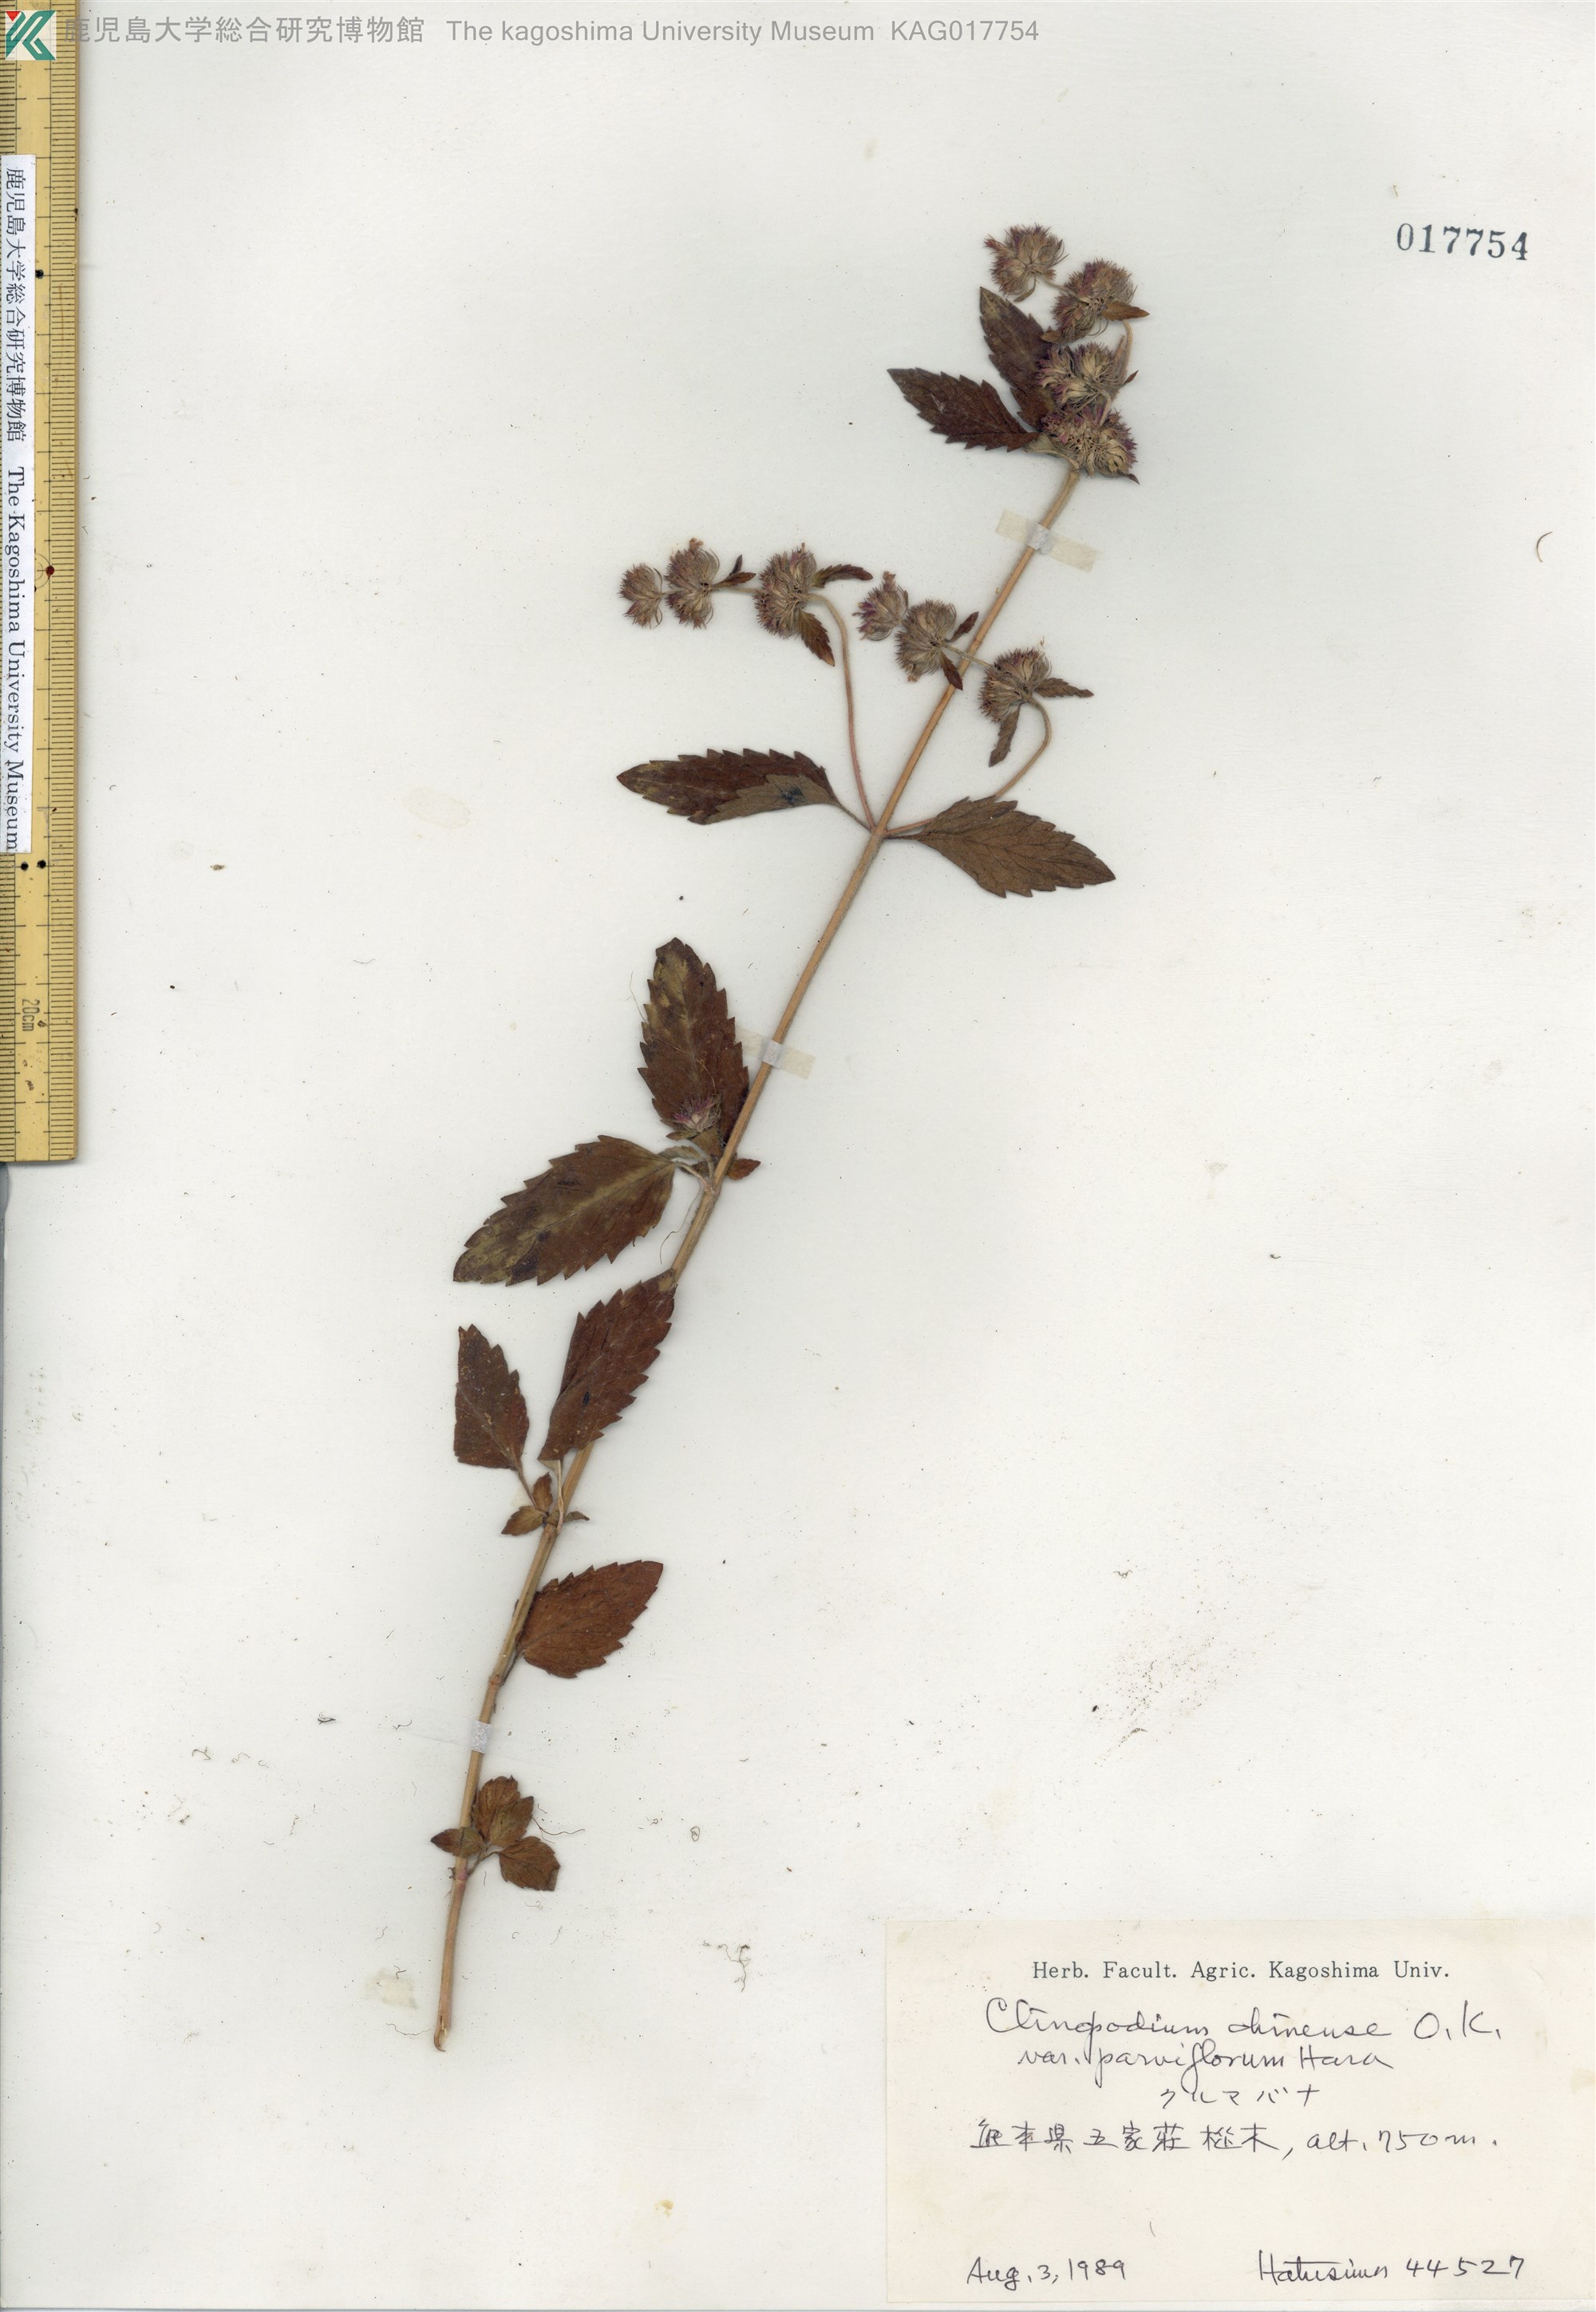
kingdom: Plantae
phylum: Tracheophyta
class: Magnoliopsida
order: Lamiales
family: Lamiaceae
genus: Clinopodium
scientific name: Clinopodium chinense
